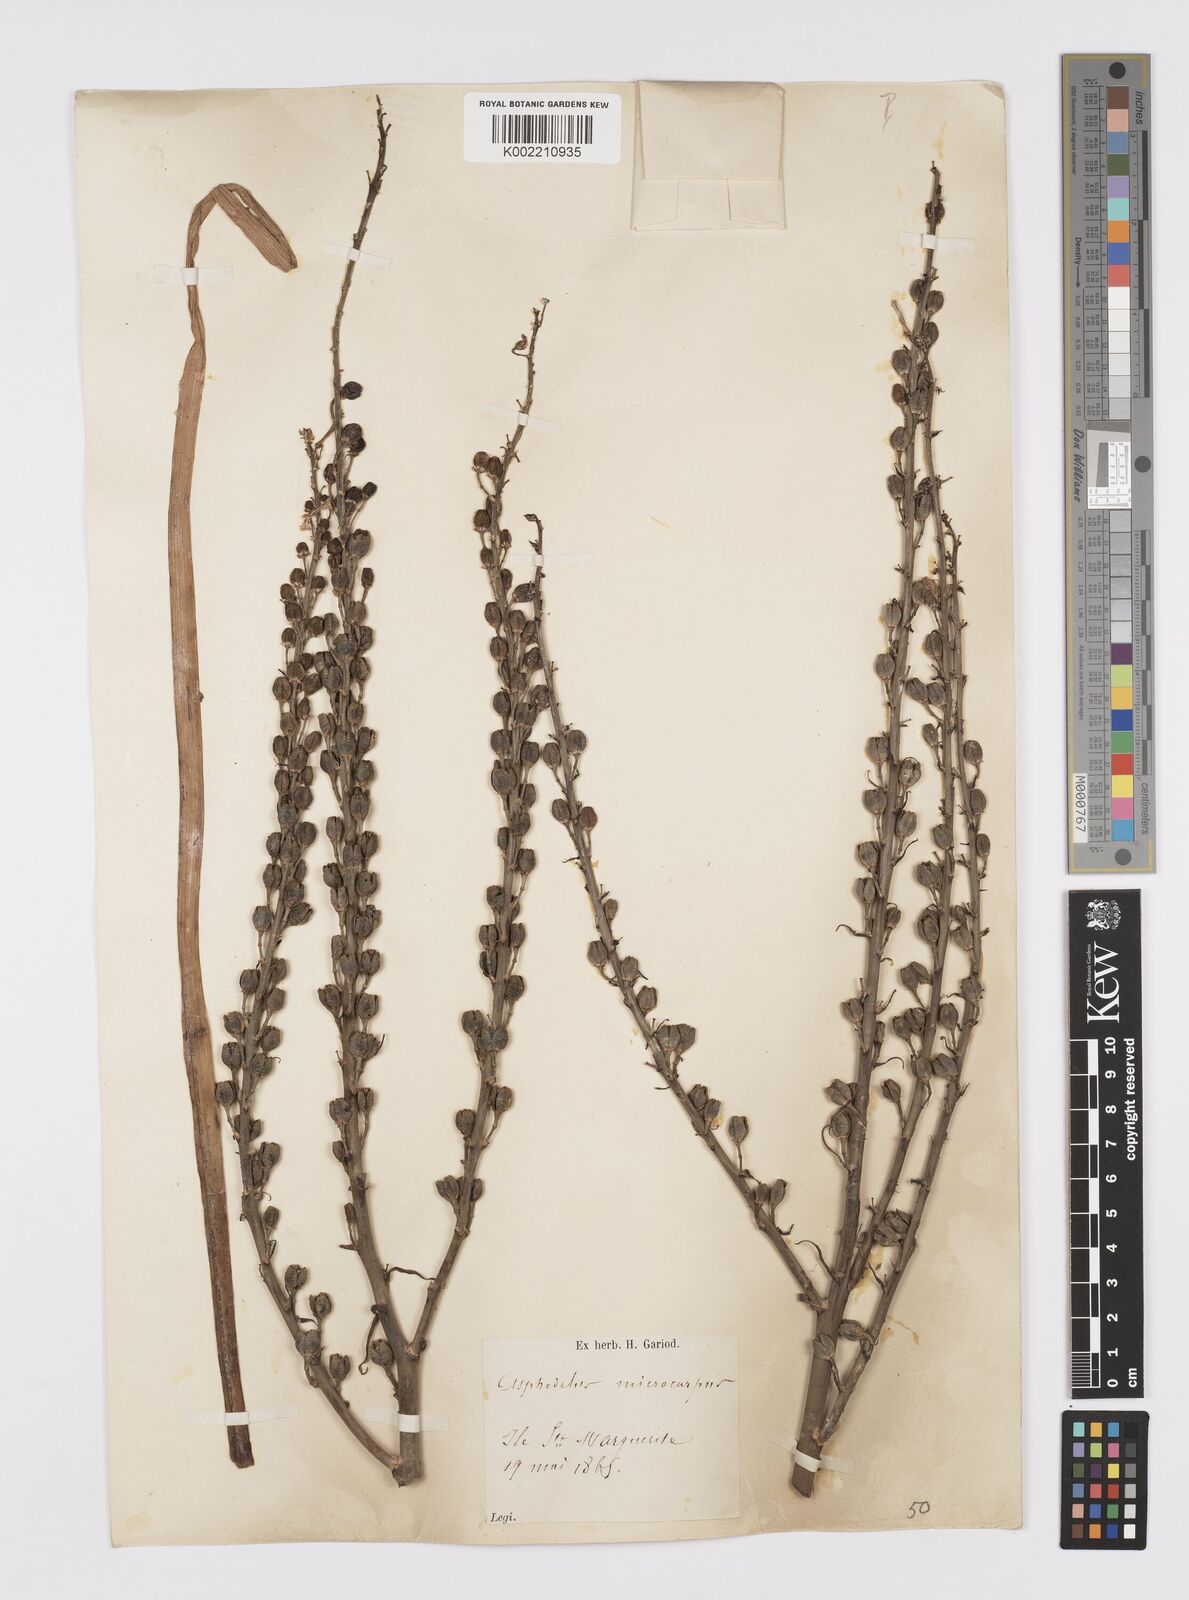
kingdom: Plantae
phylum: Tracheophyta
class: Liliopsida
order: Asparagales
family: Asphodelaceae
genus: Asphodelus
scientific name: Asphodelus ramosus
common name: Silverrod
